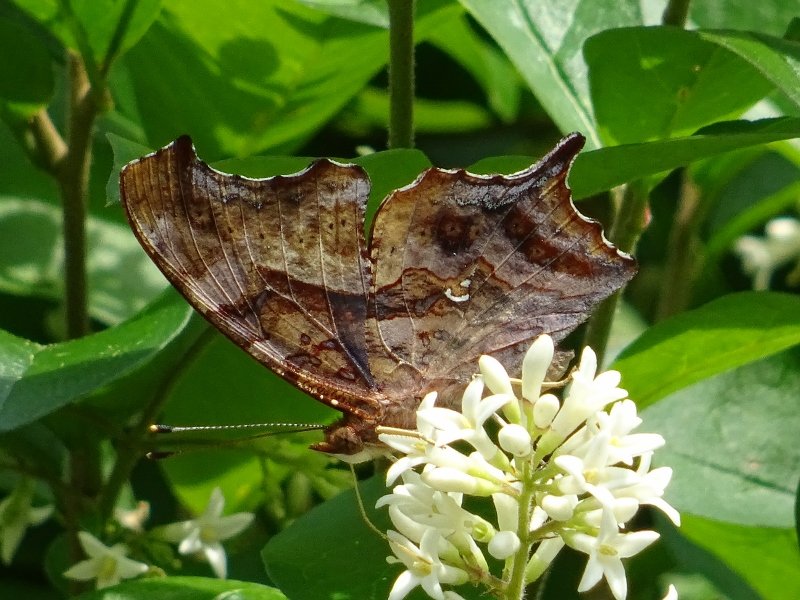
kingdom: Animalia
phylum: Arthropoda
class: Insecta
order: Lepidoptera
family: Nymphalidae
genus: Polygonia
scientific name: Polygonia interrogationis
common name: Question Mark
